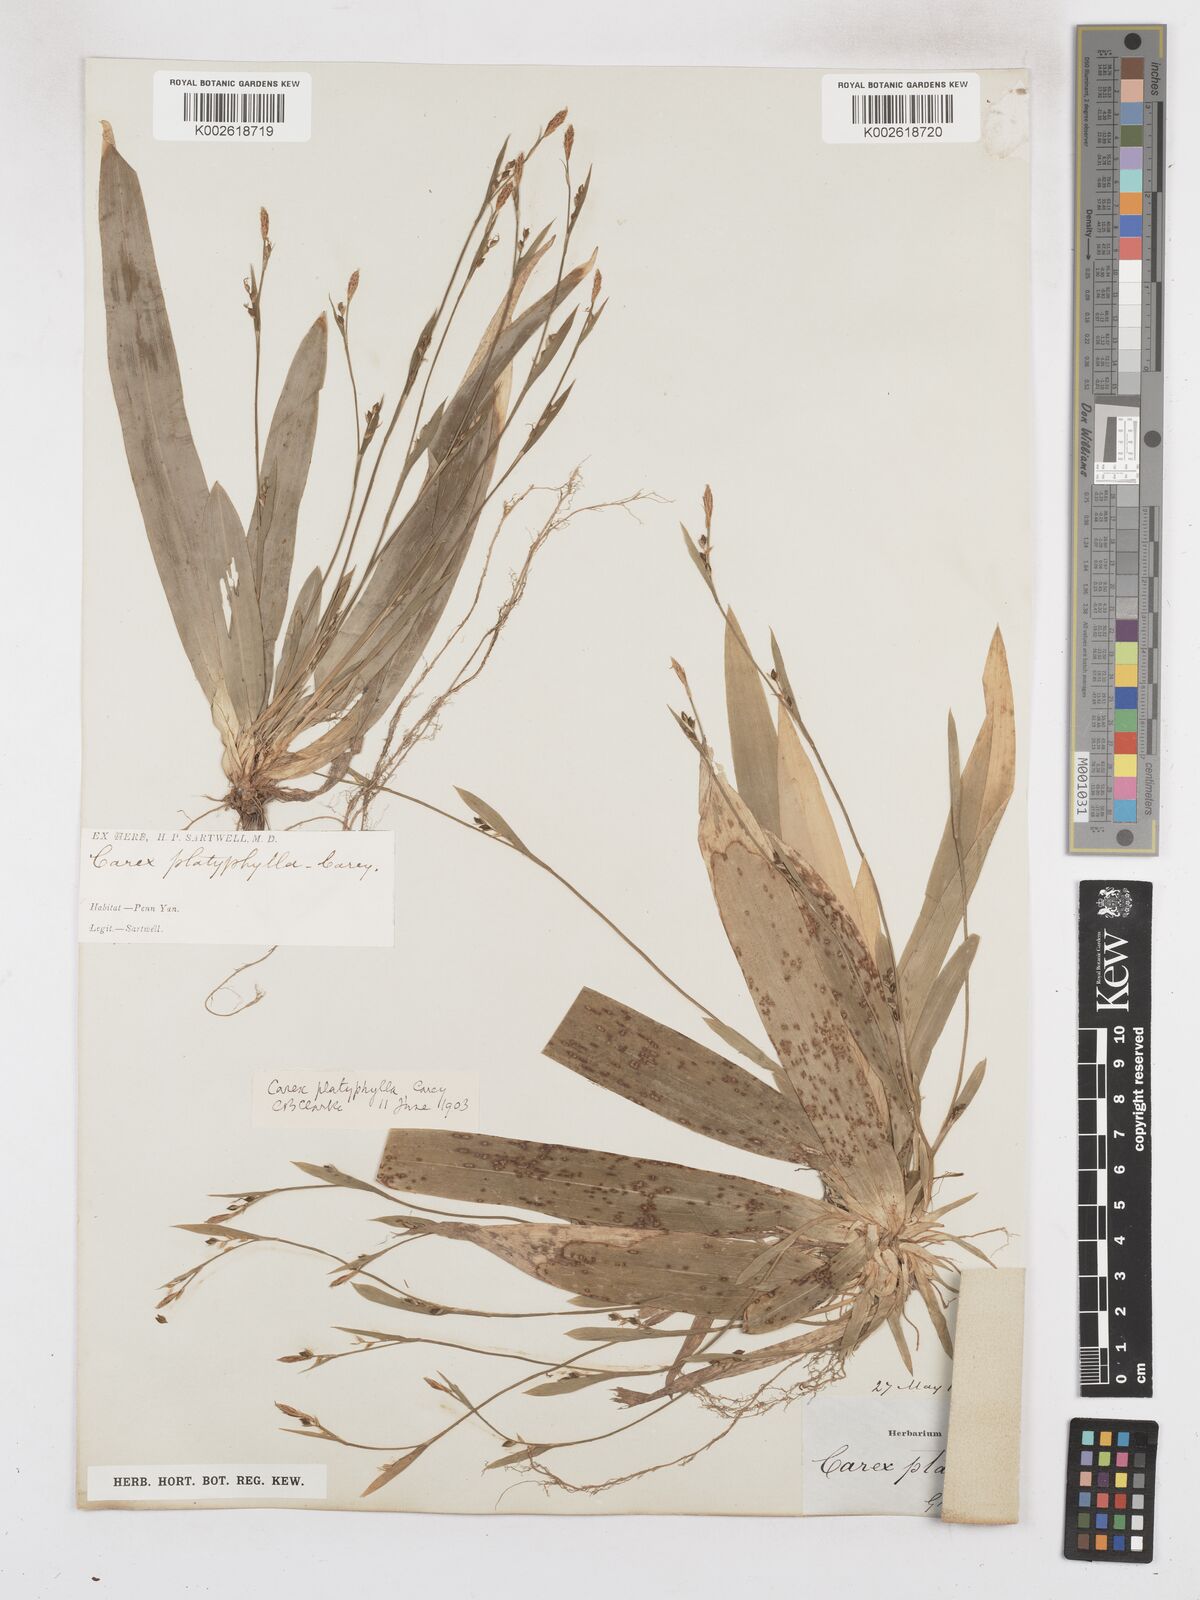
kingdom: Plantae
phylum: Tracheophyta
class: Liliopsida
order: Poales
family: Cyperaceae
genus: Carex
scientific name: Carex platyphylla
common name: Broad-leaved sedge
